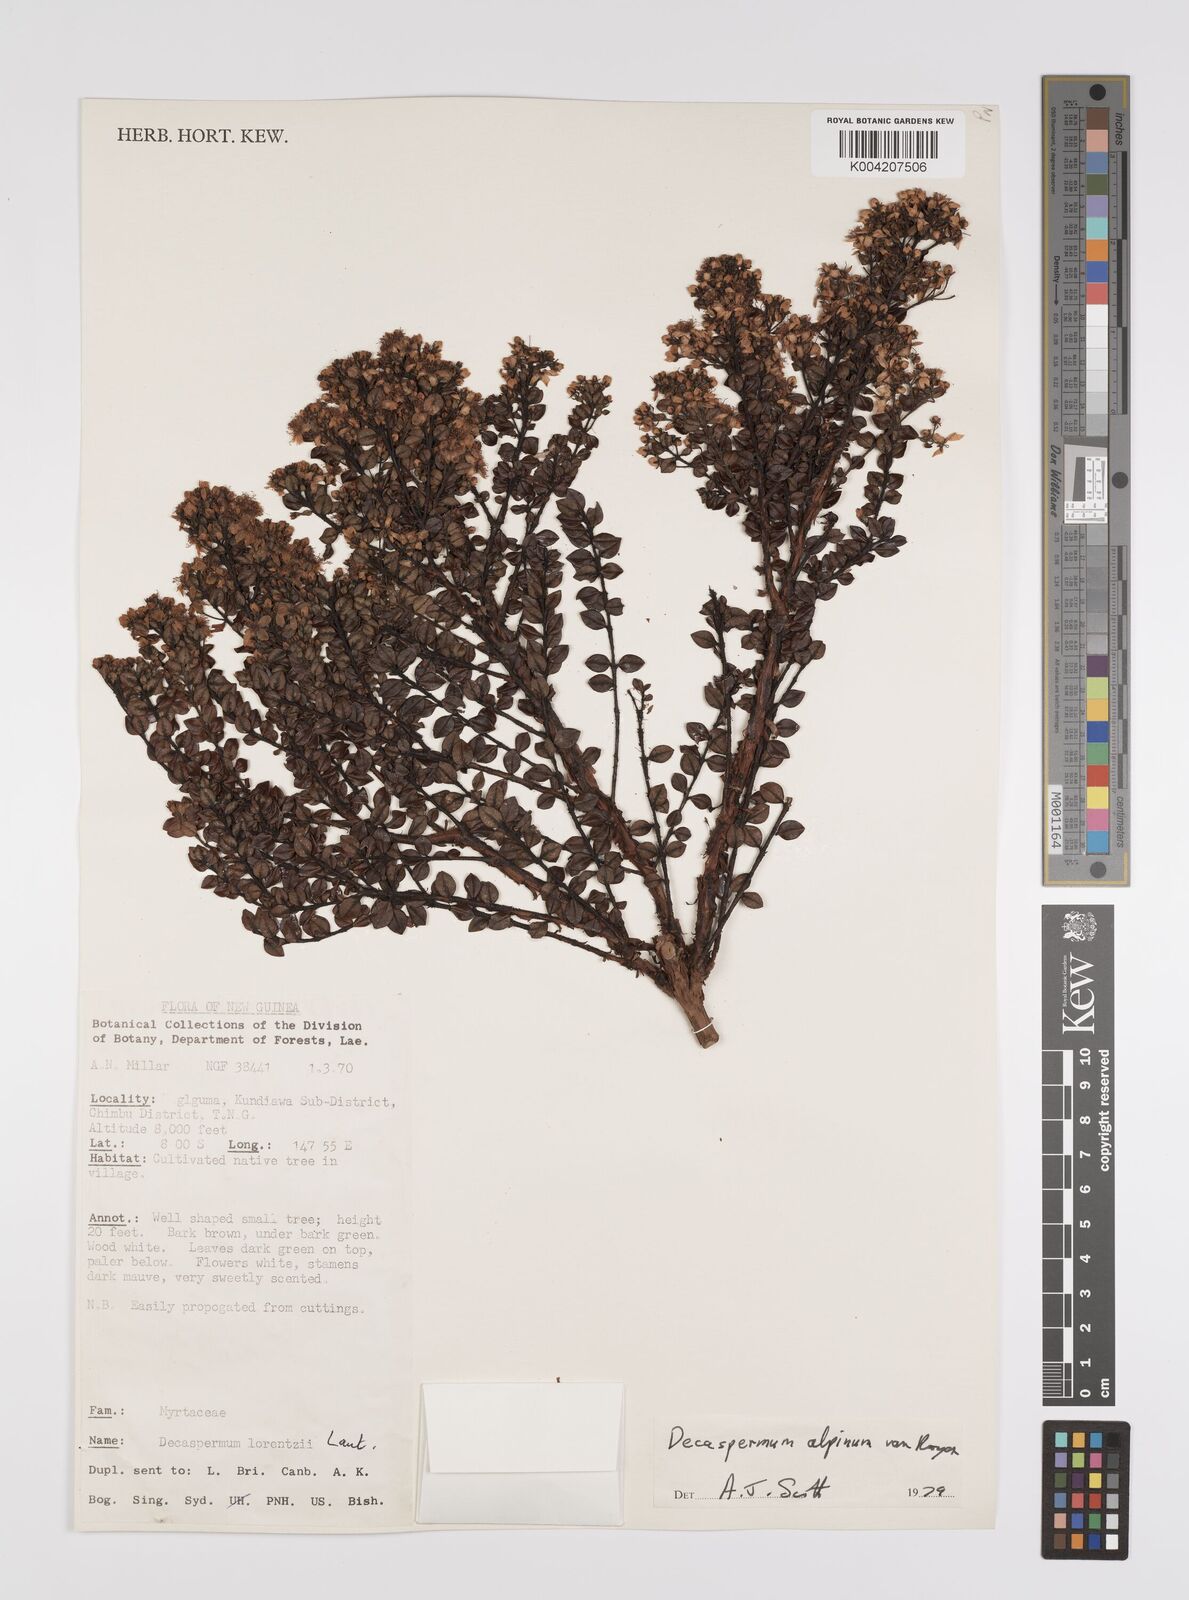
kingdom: Plantae
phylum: Tracheophyta
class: Magnoliopsida
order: Myrtales
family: Myrtaceae
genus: Decaspermum
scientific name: Decaspermum alpinum
